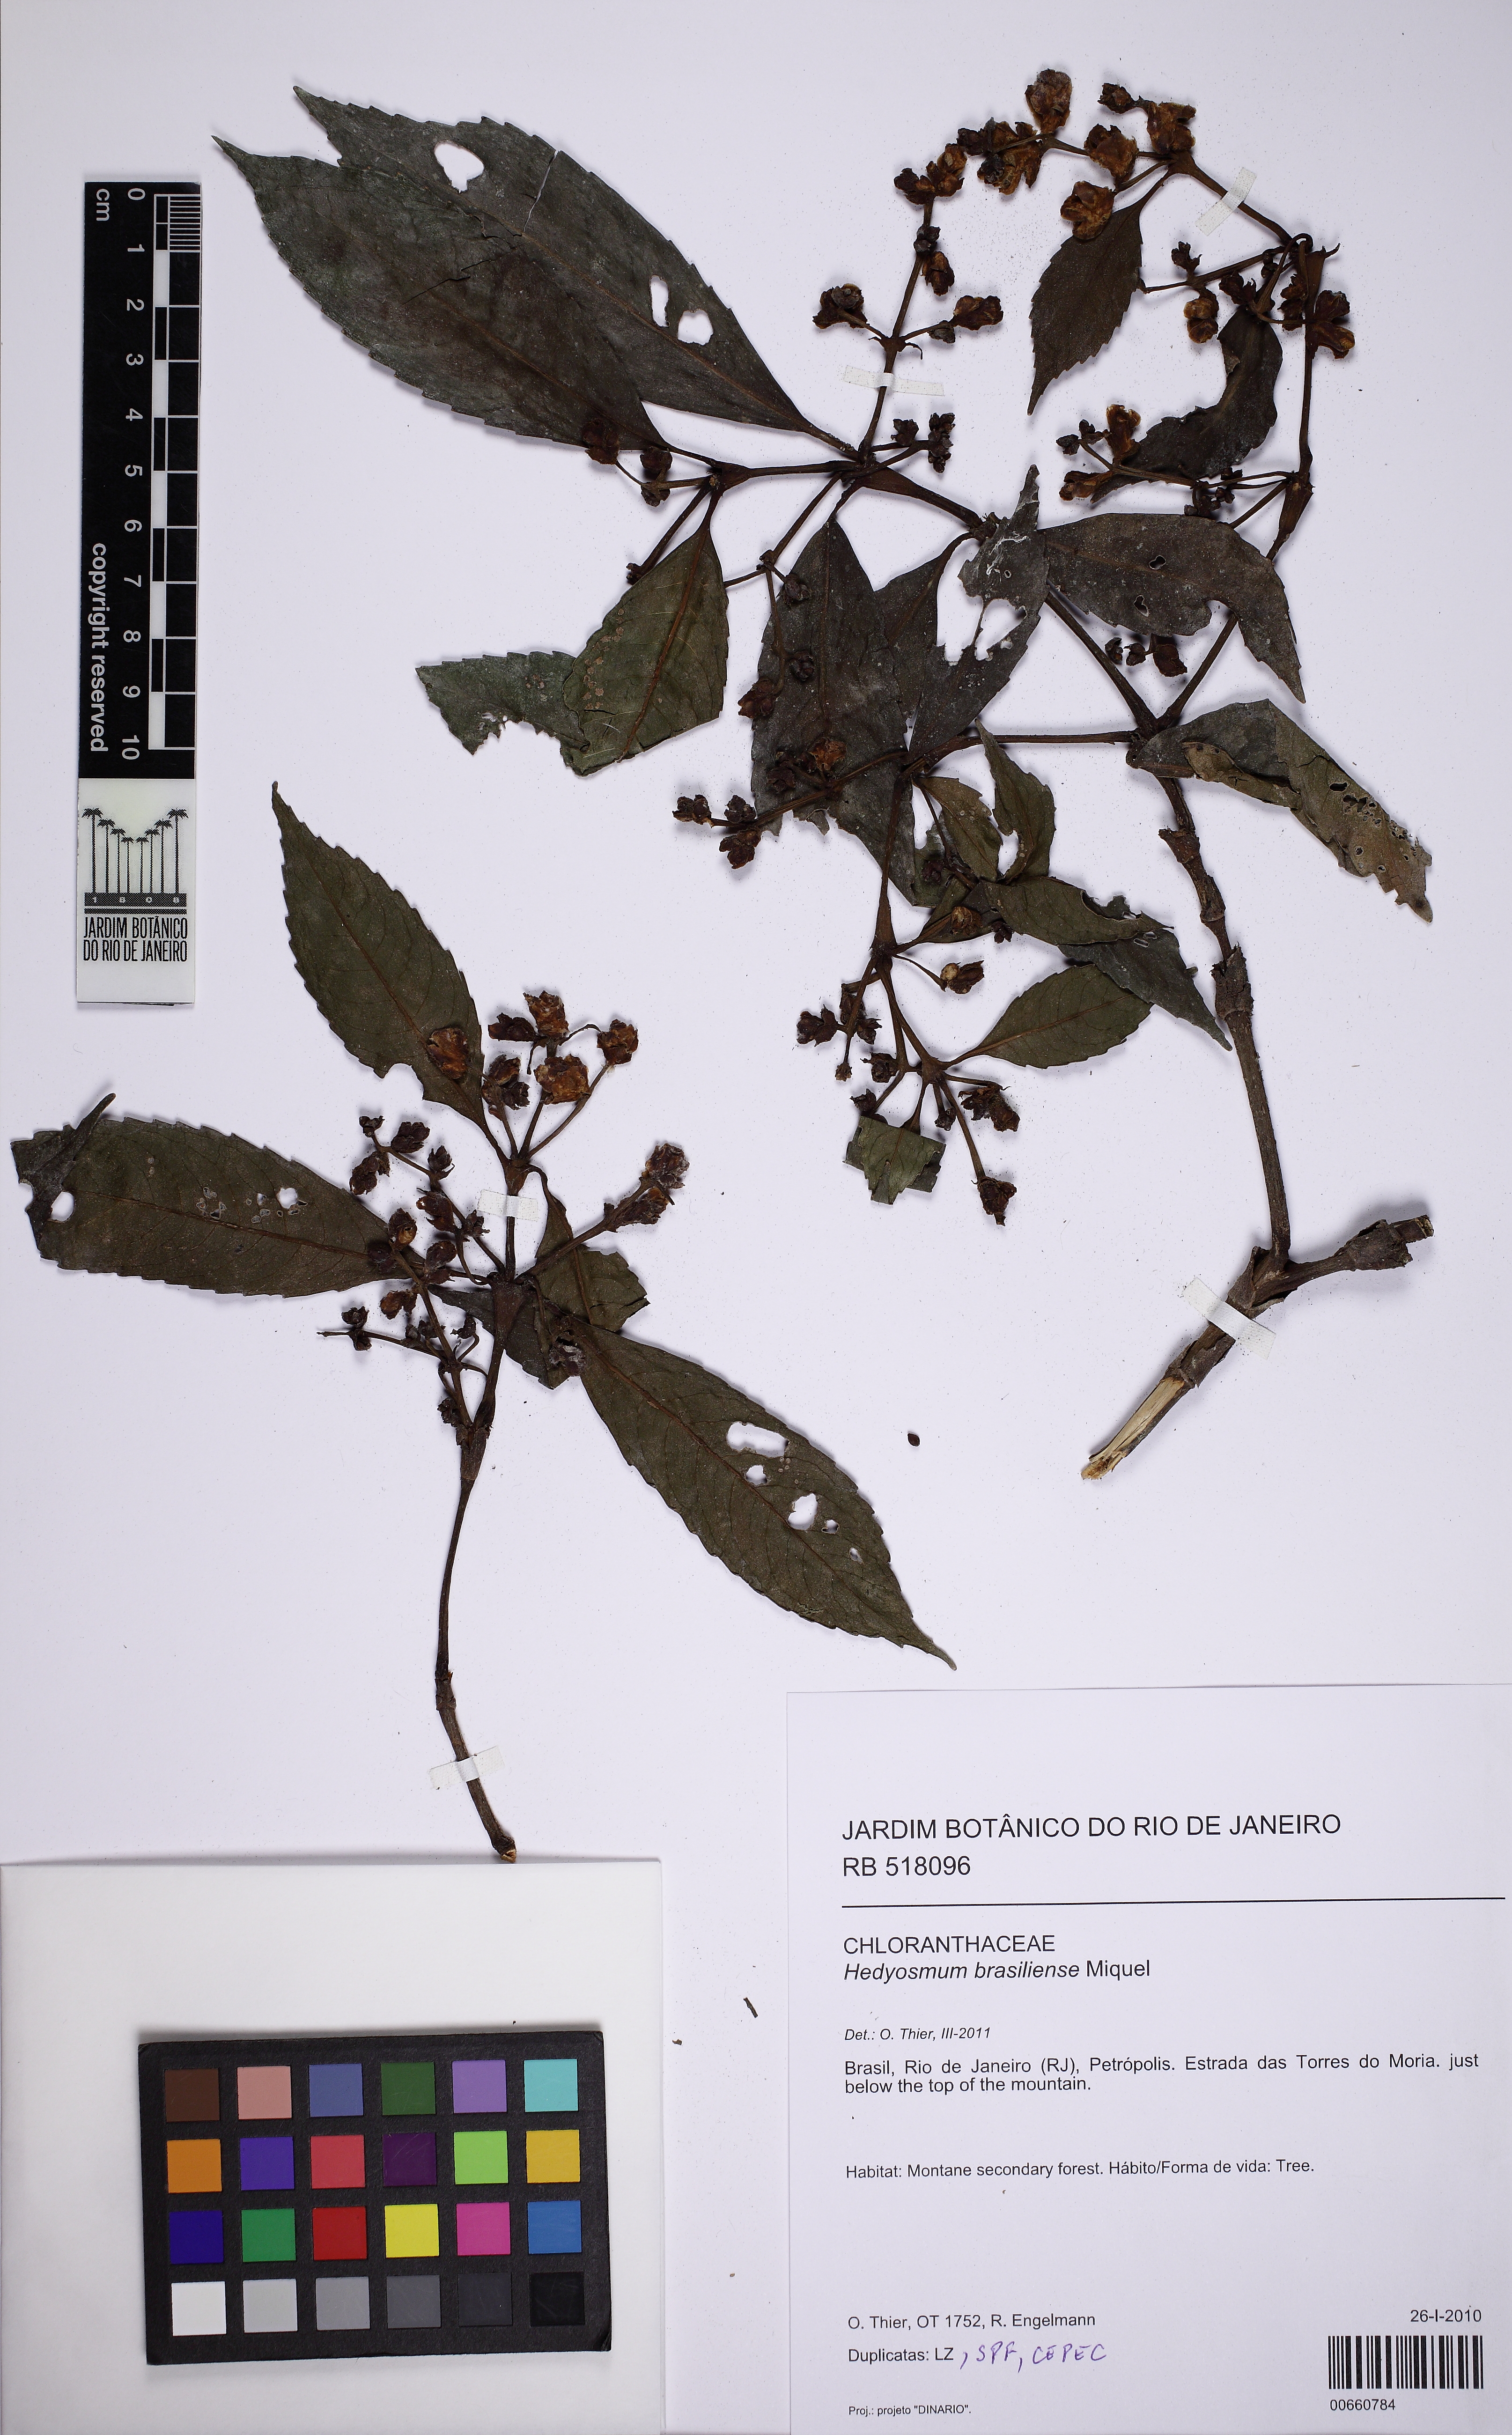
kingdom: Plantae
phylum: Tracheophyta
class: Magnoliopsida
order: Chloranthales
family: Chloranthaceae
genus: Hedyosmum
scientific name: Hedyosmum brasiliense
